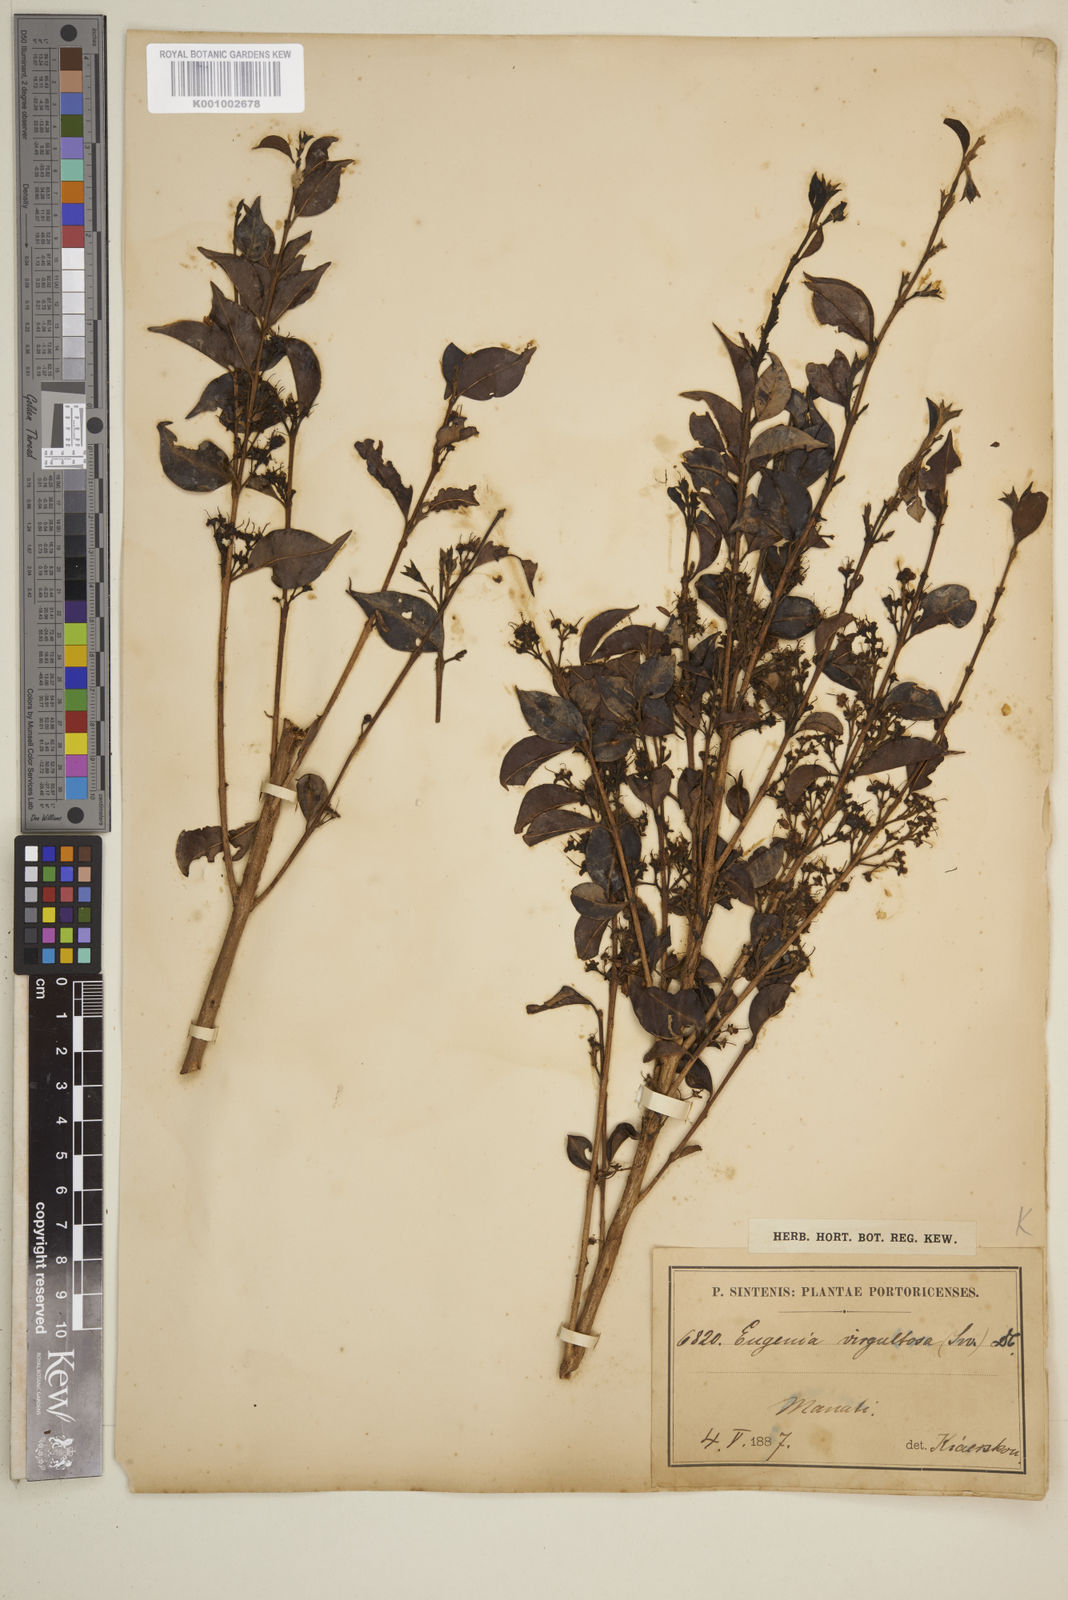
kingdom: Plantae
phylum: Tracheophyta
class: Magnoliopsida
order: Myrtales
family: Myrtaceae
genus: Eugenia
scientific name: Eugenia biflora
